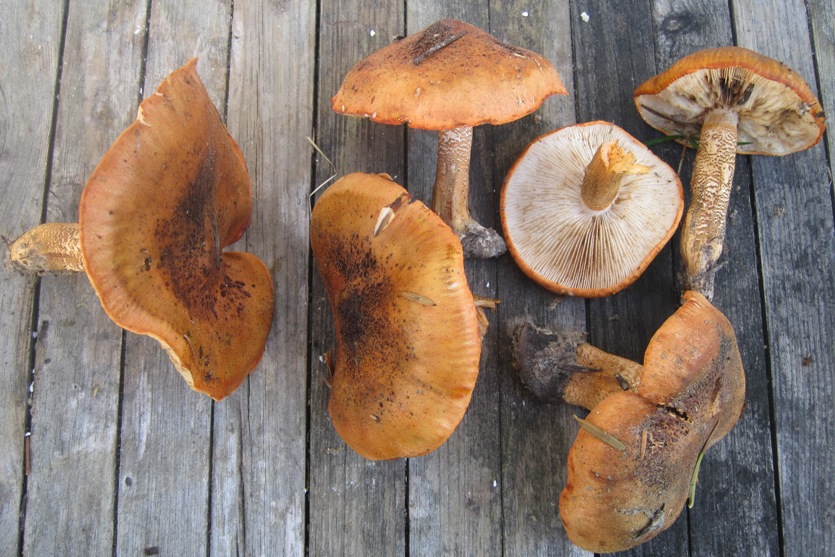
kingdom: Fungi
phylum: Basidiomycota
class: Agaricomycetes
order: Agaricales
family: Tricholomataceae
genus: Tricholoma
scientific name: Tricholoma aurantium
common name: orangegul ridderhat
